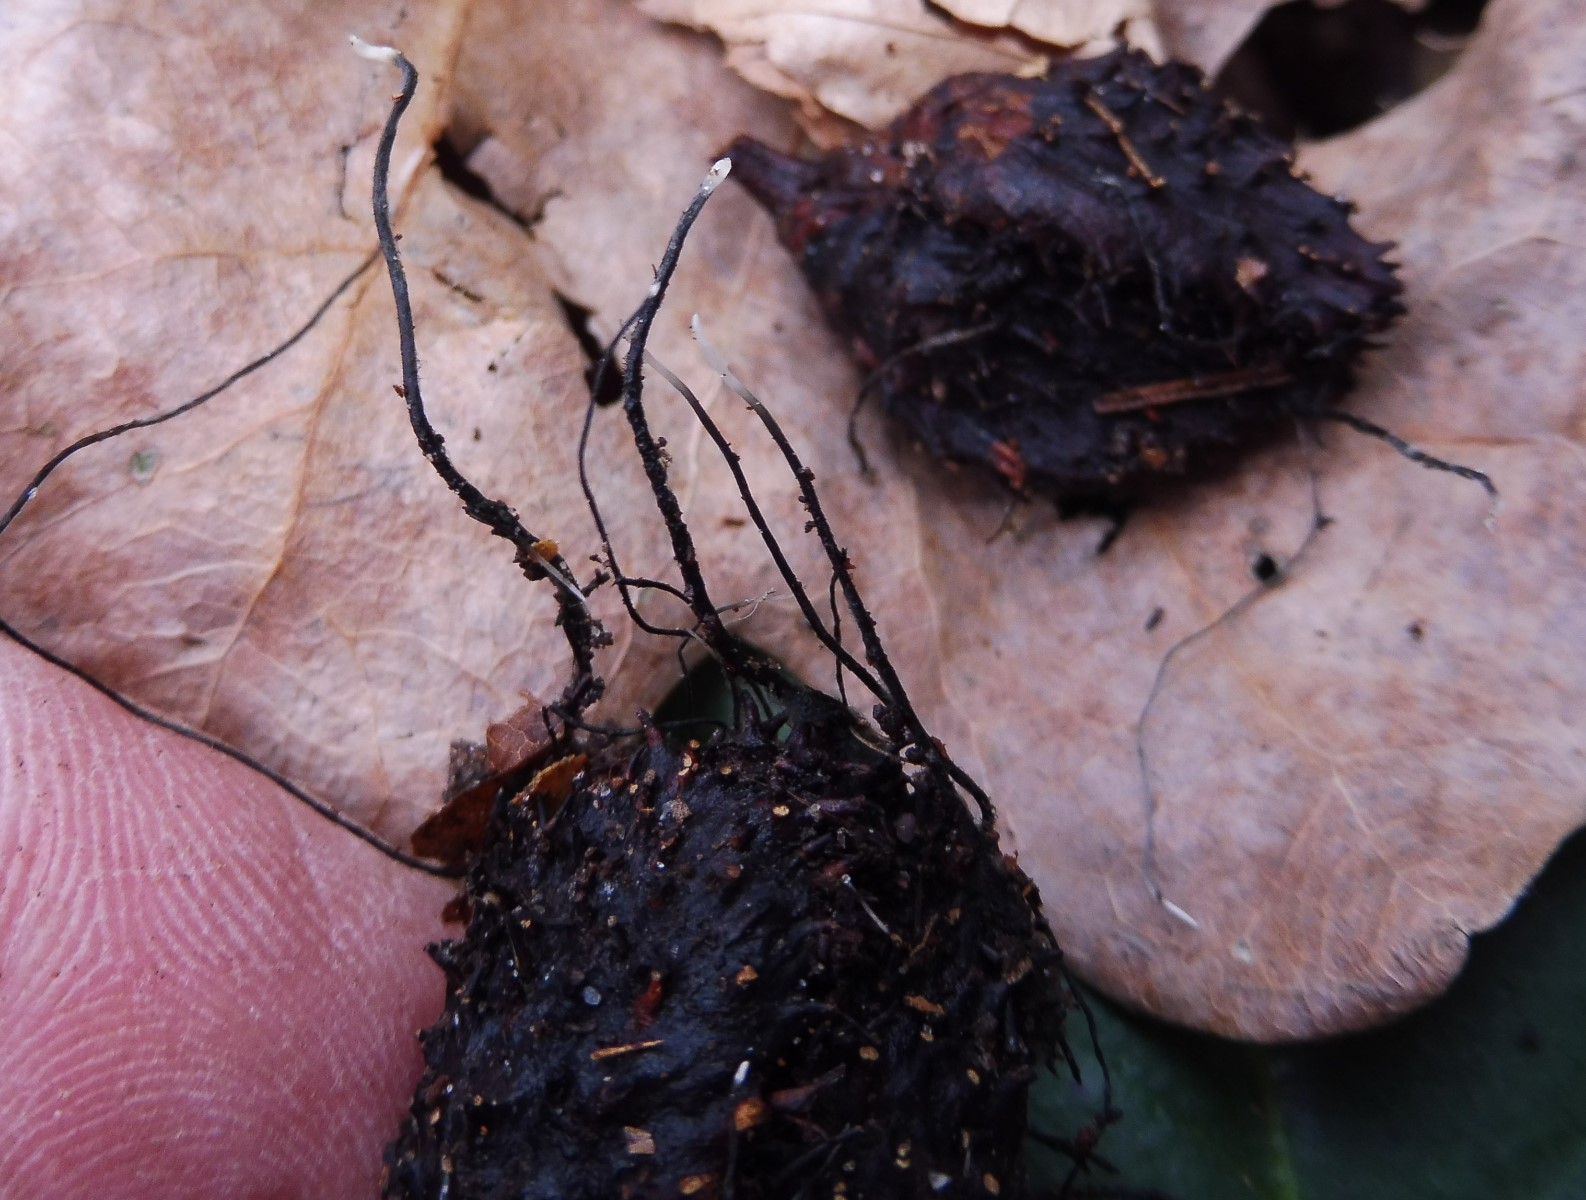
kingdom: Fungi
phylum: Ascomycota
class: Sordariomycetes
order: Xylariales
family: Xylariaceae
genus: Xylaria
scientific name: Xylaria carpophila
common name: bogskål-stødsvamp
